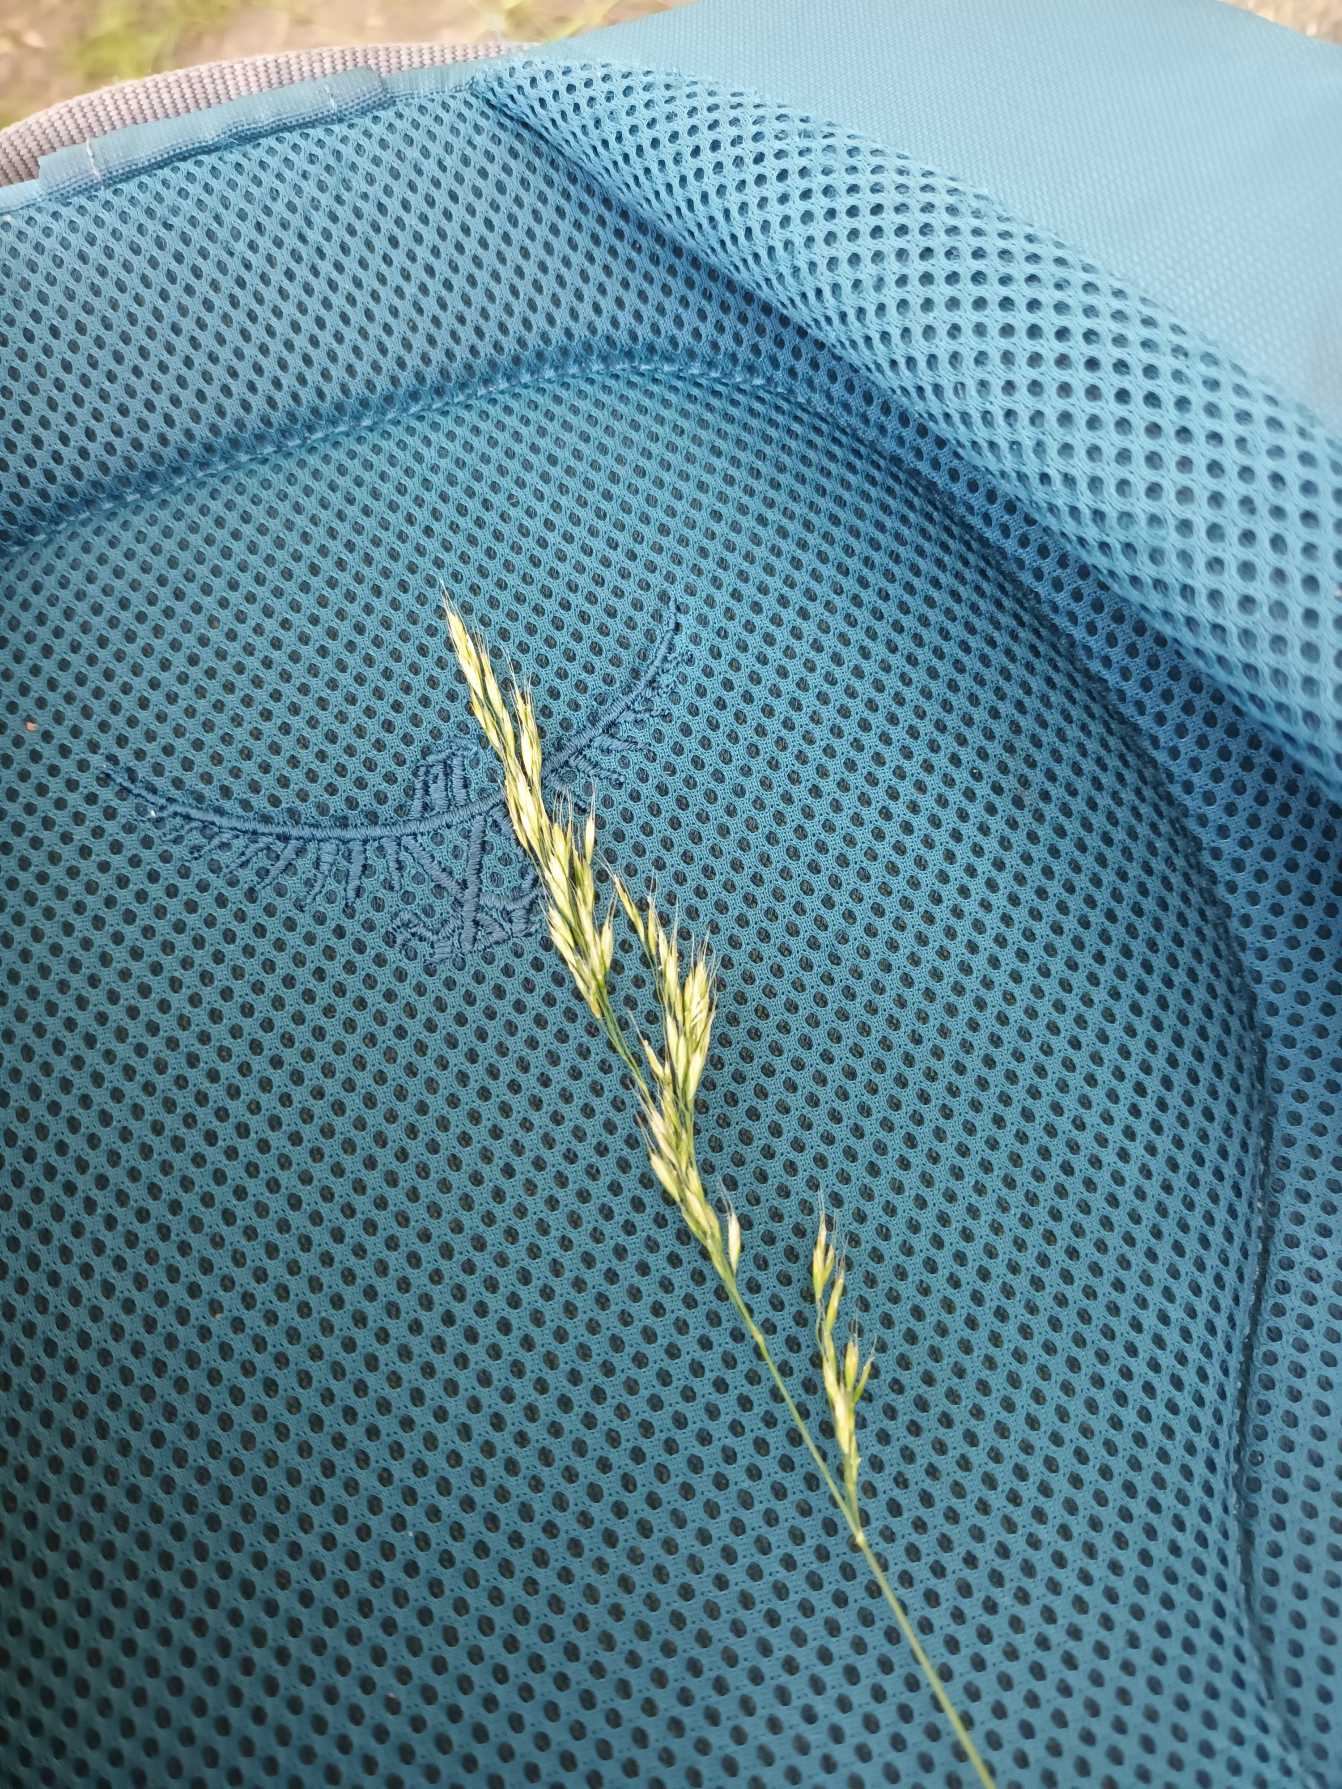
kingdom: Plantae
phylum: Tracheophyta
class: Liliopsida
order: Poales
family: Poaceae
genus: Trisetum
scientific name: Trisetum flavescens
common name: Guldhavre
